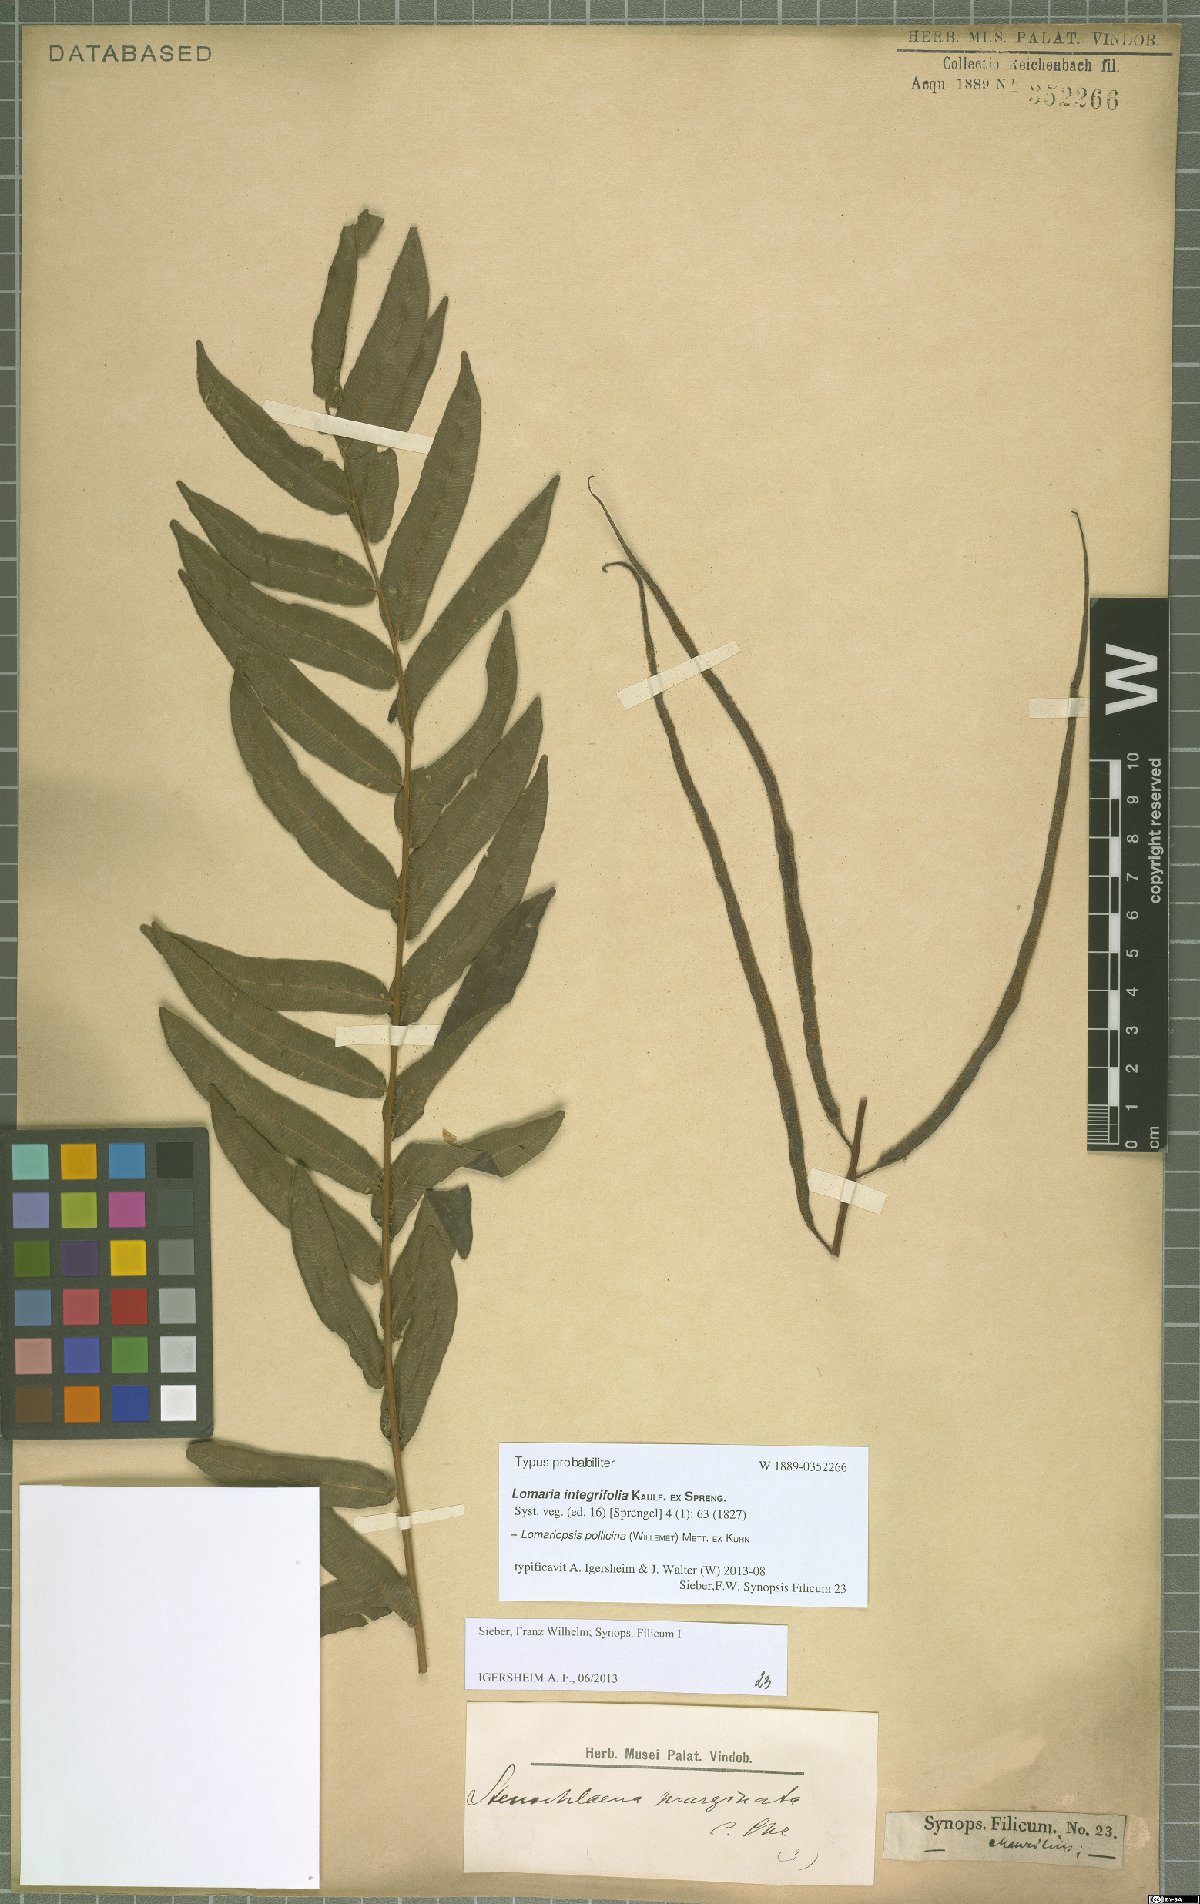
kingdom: Plantae
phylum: Tracheophyta
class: Polypodiopsida
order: Polypodiales
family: Lomariopsidaceae
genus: Lomariopsis
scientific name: Lomariopsis pollicina
